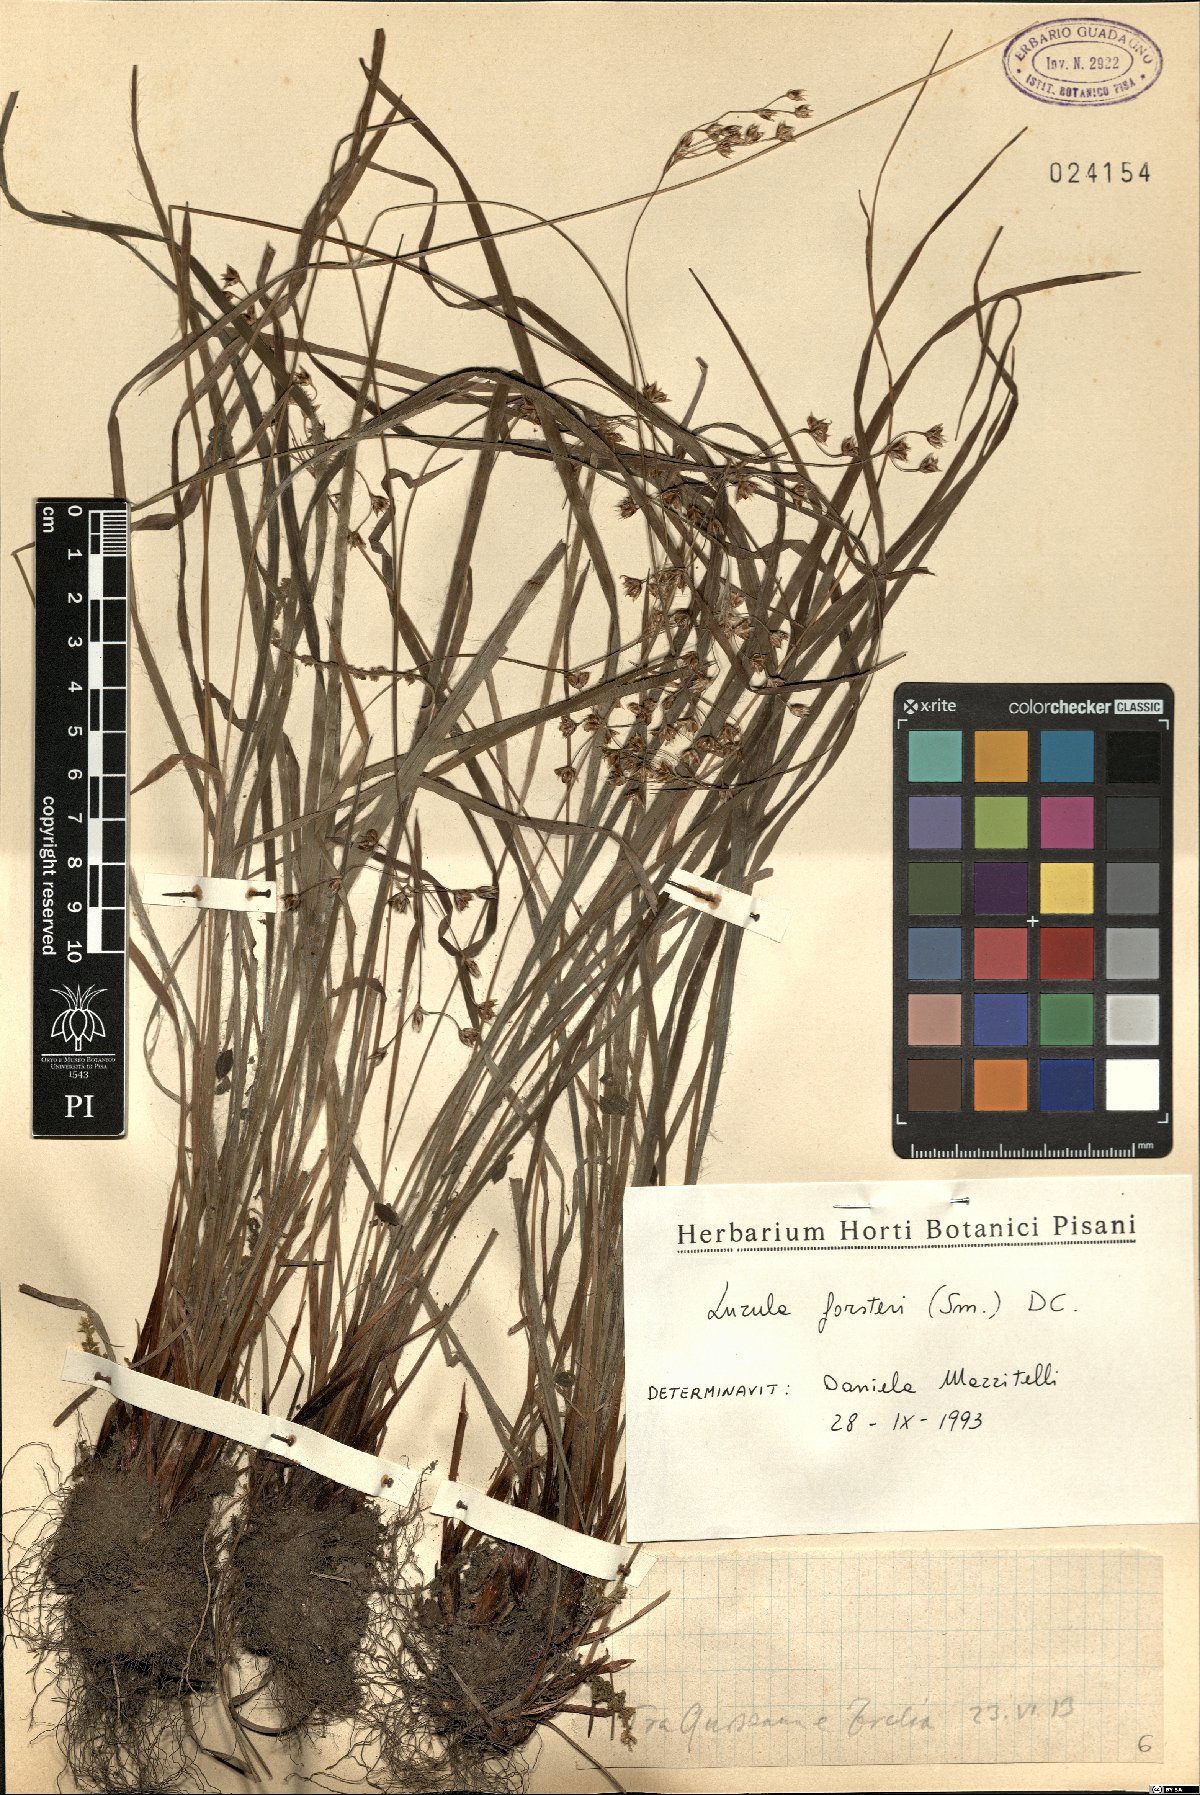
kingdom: Plantae
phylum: Tracheophyta
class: Liliopsida
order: Poales
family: Juncaceae
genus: Luzula
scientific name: Luzula forsteri
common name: Southern wood-rush
